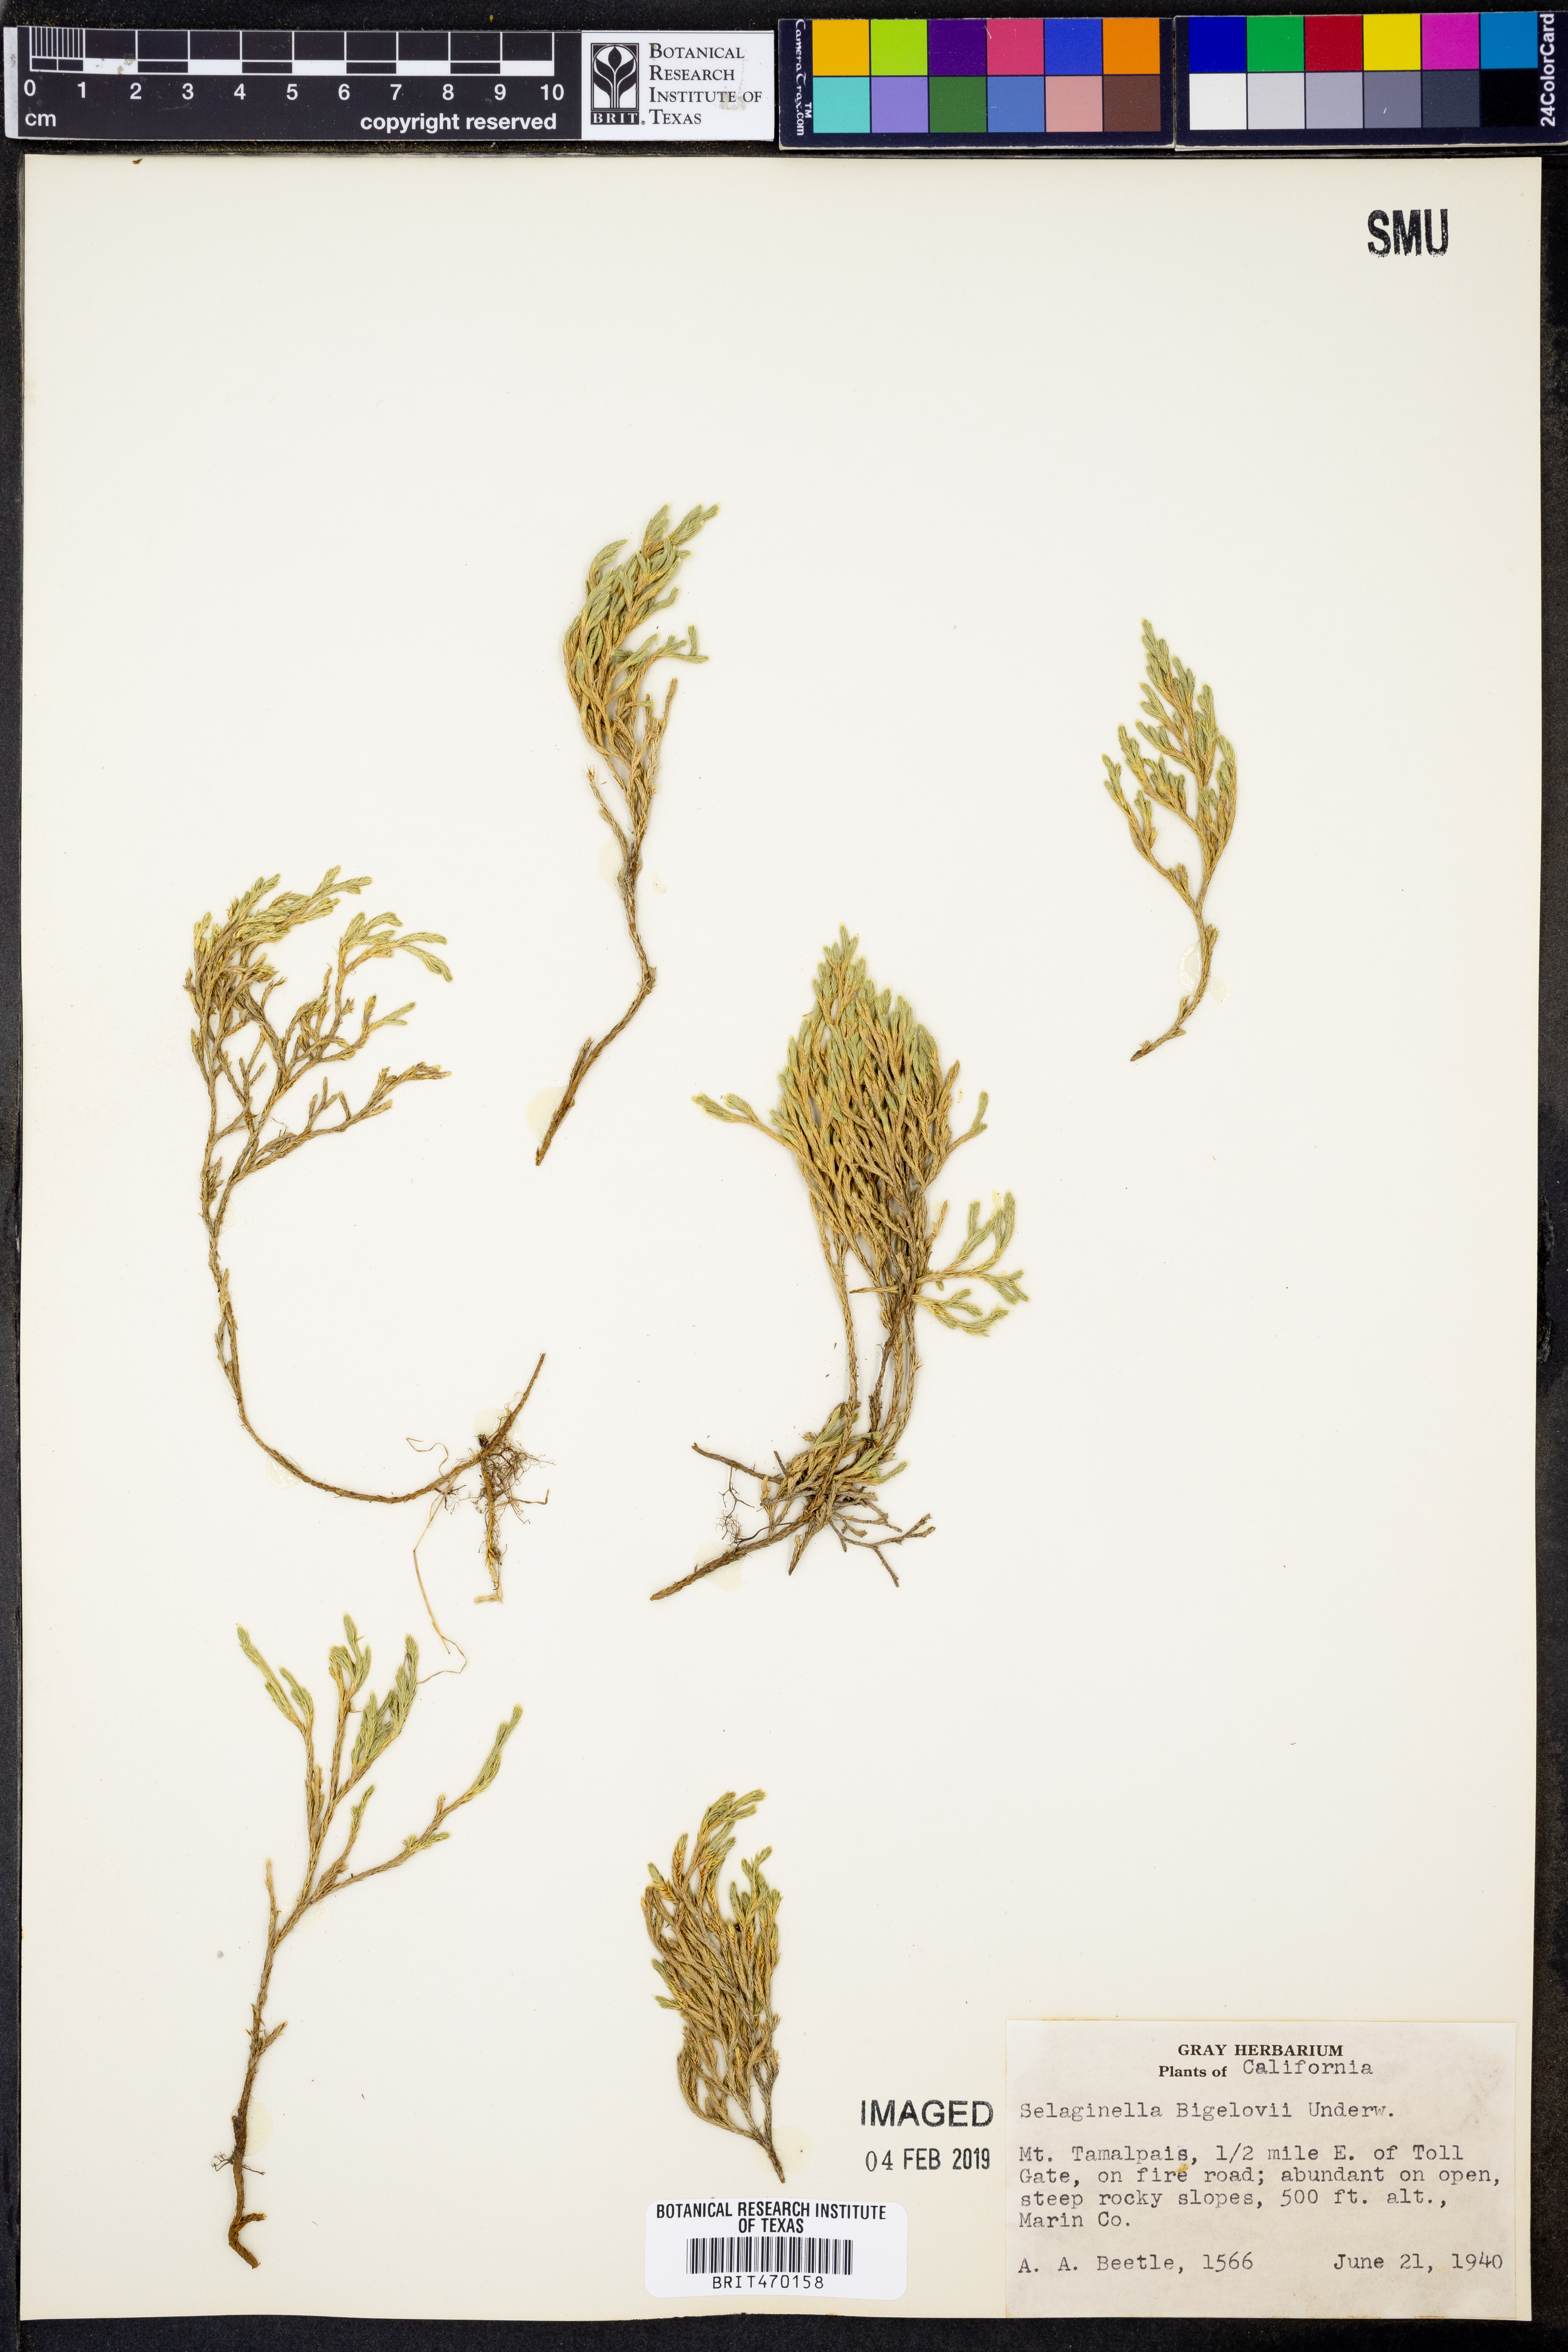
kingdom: Plantae
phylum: Tracheophyta
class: Lycopodiopsida
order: Selaginellales
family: Selaginellaceae
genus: Selaginella
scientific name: Selaginella bigelovii
